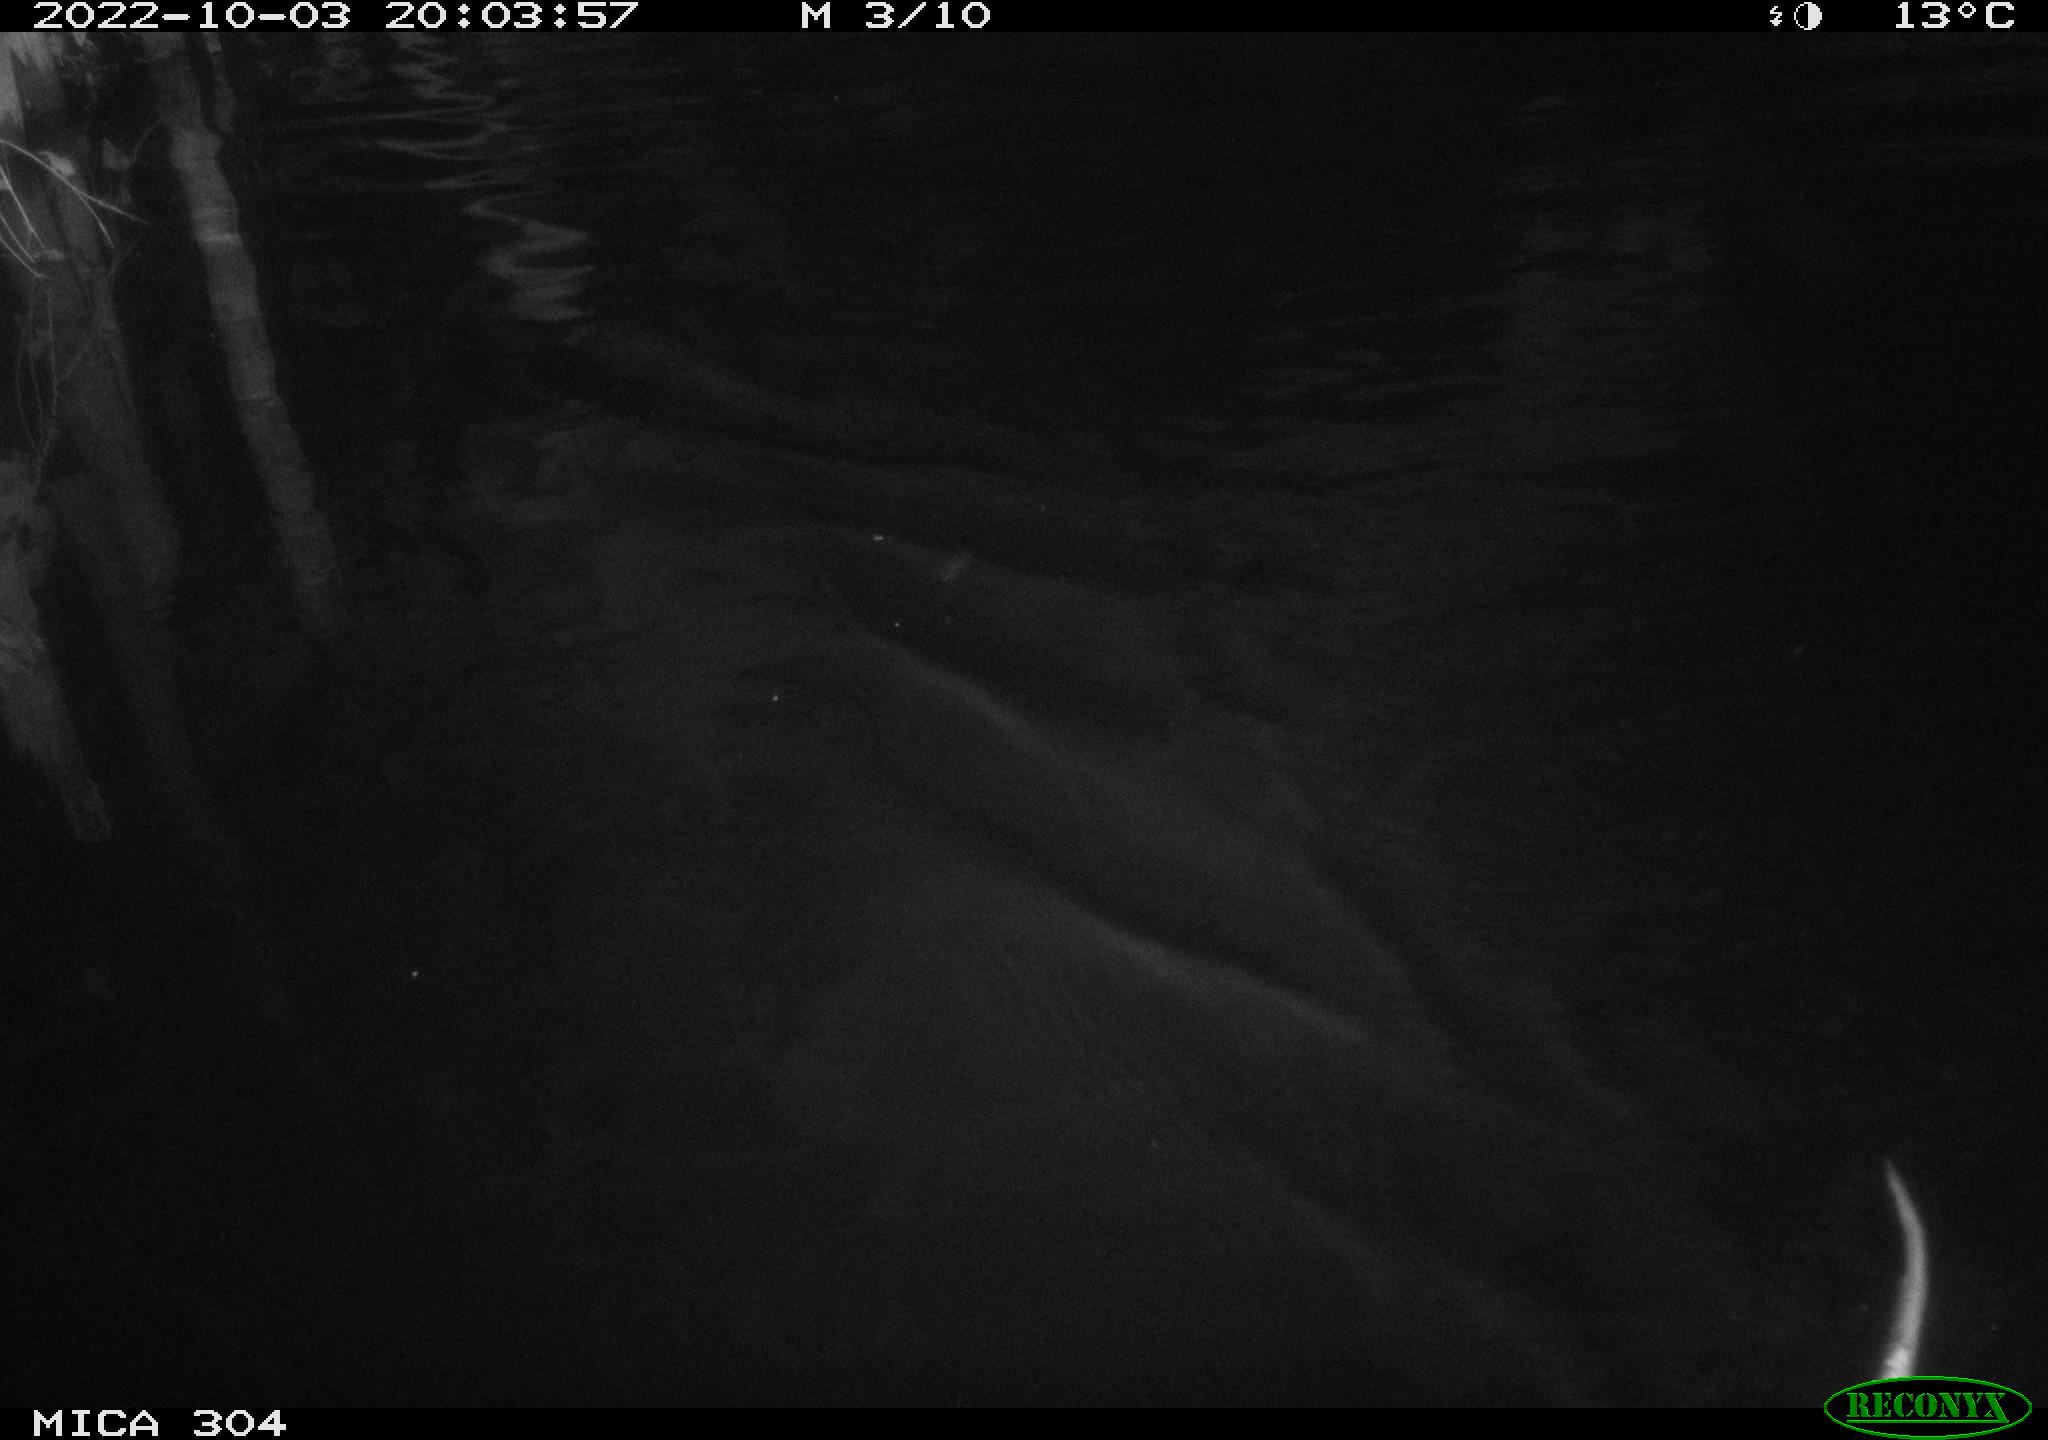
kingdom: Animalia
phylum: Chordata
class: Mammalia
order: Rodentia
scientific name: Rodentia
